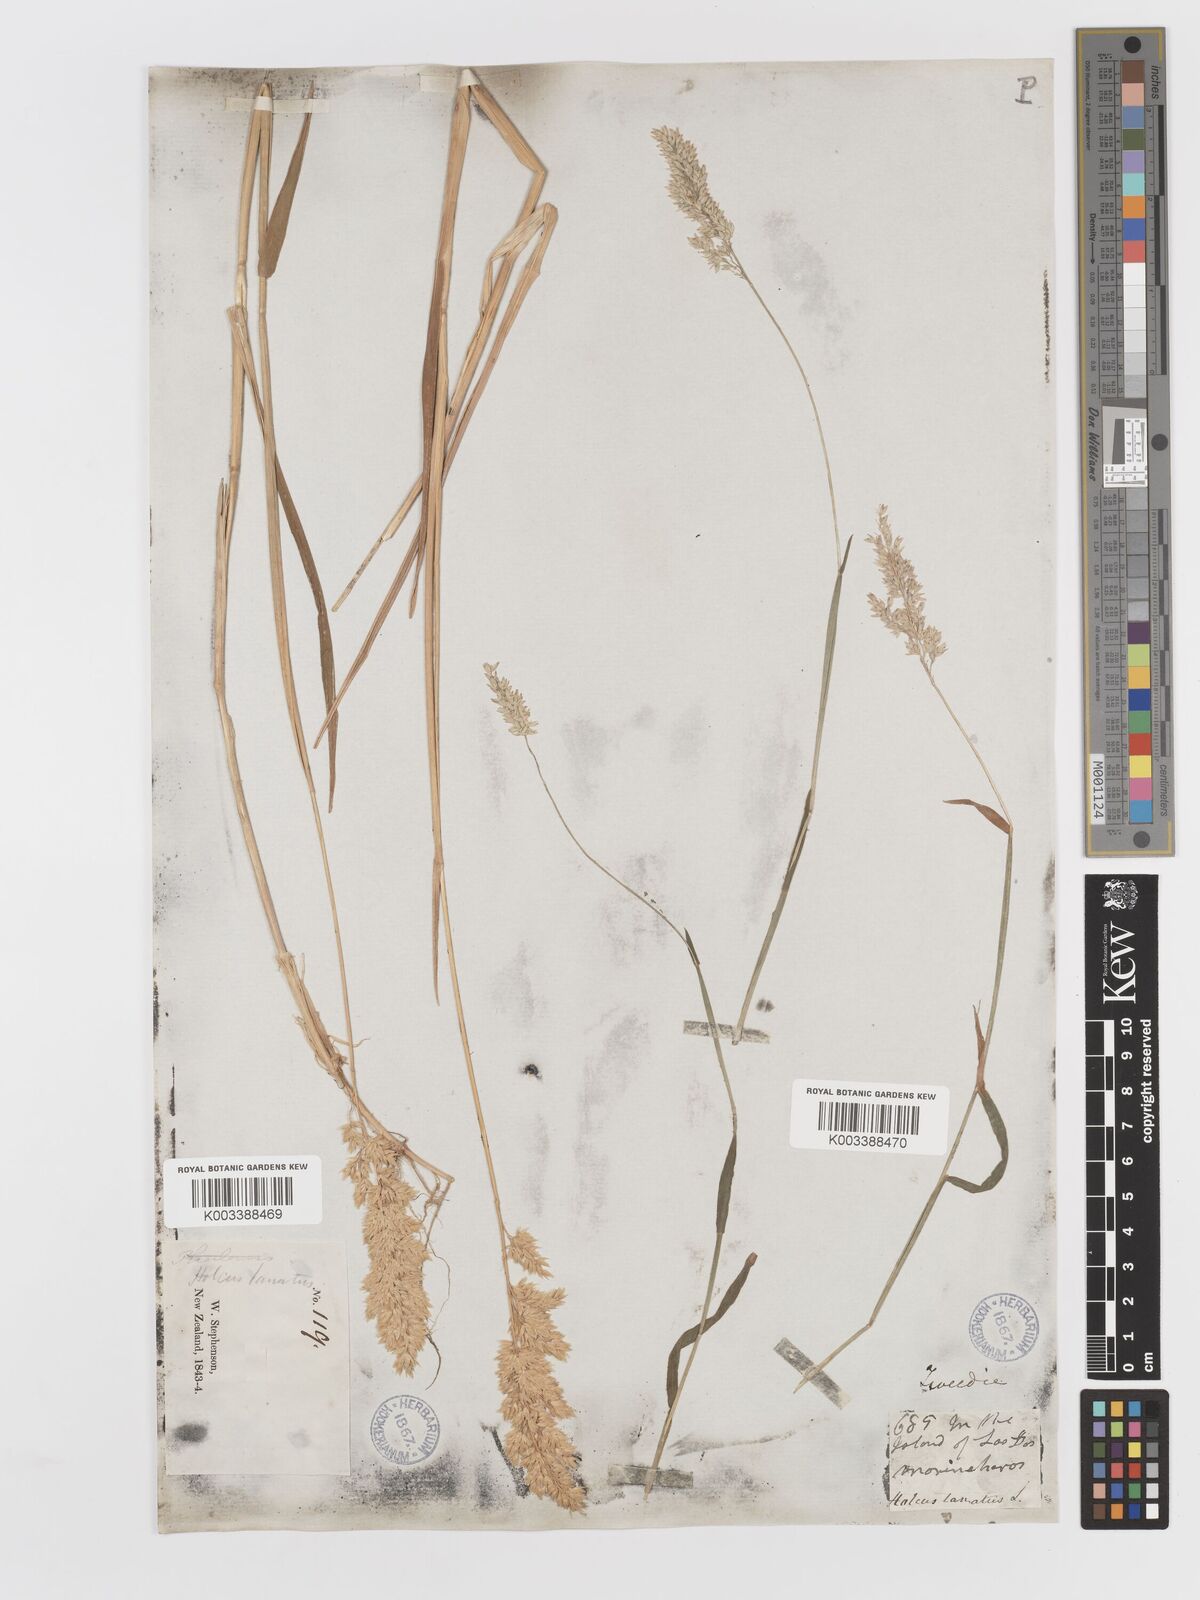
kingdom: Plantae
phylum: Tracheophyta
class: Liliopsida
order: Poales
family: Poaceae
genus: Holcus
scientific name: Holcus lanatus
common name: Yorkshire-fog
